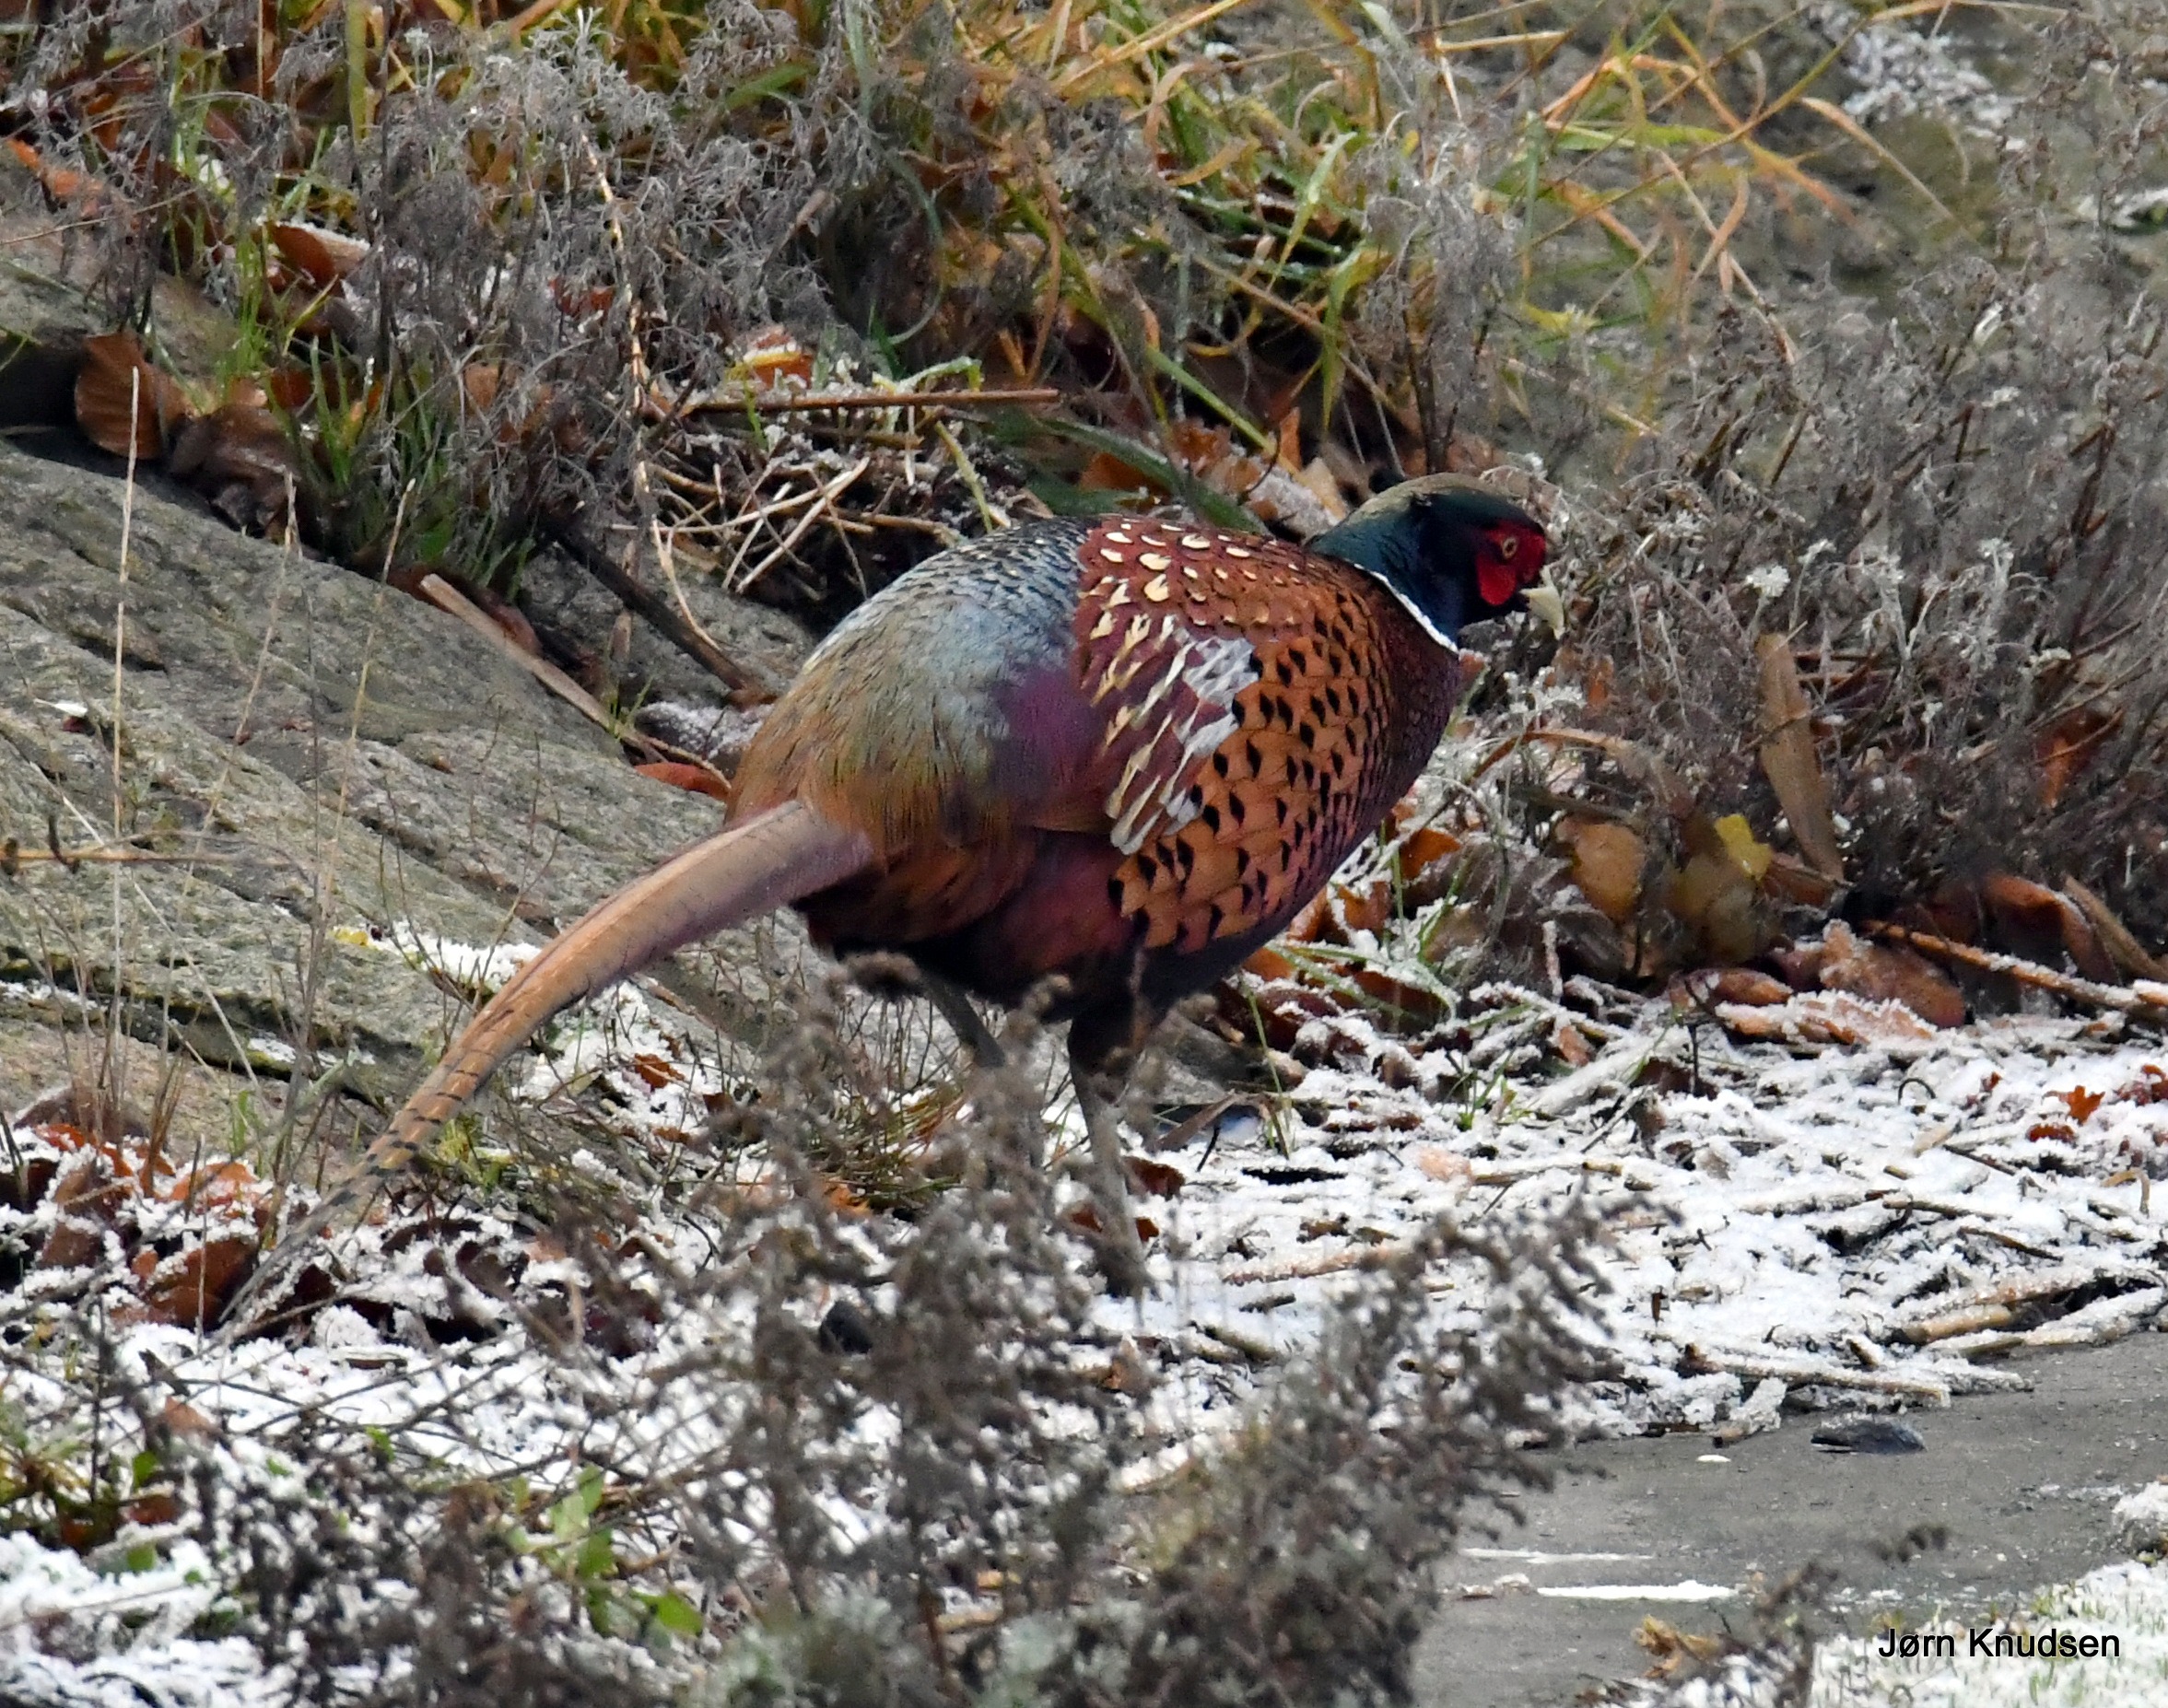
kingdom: Animalia
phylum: Chordata
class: Aves
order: Galliformes
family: Phasianidae
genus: Phasianus
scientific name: Phasianus colchicus
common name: Fasan
